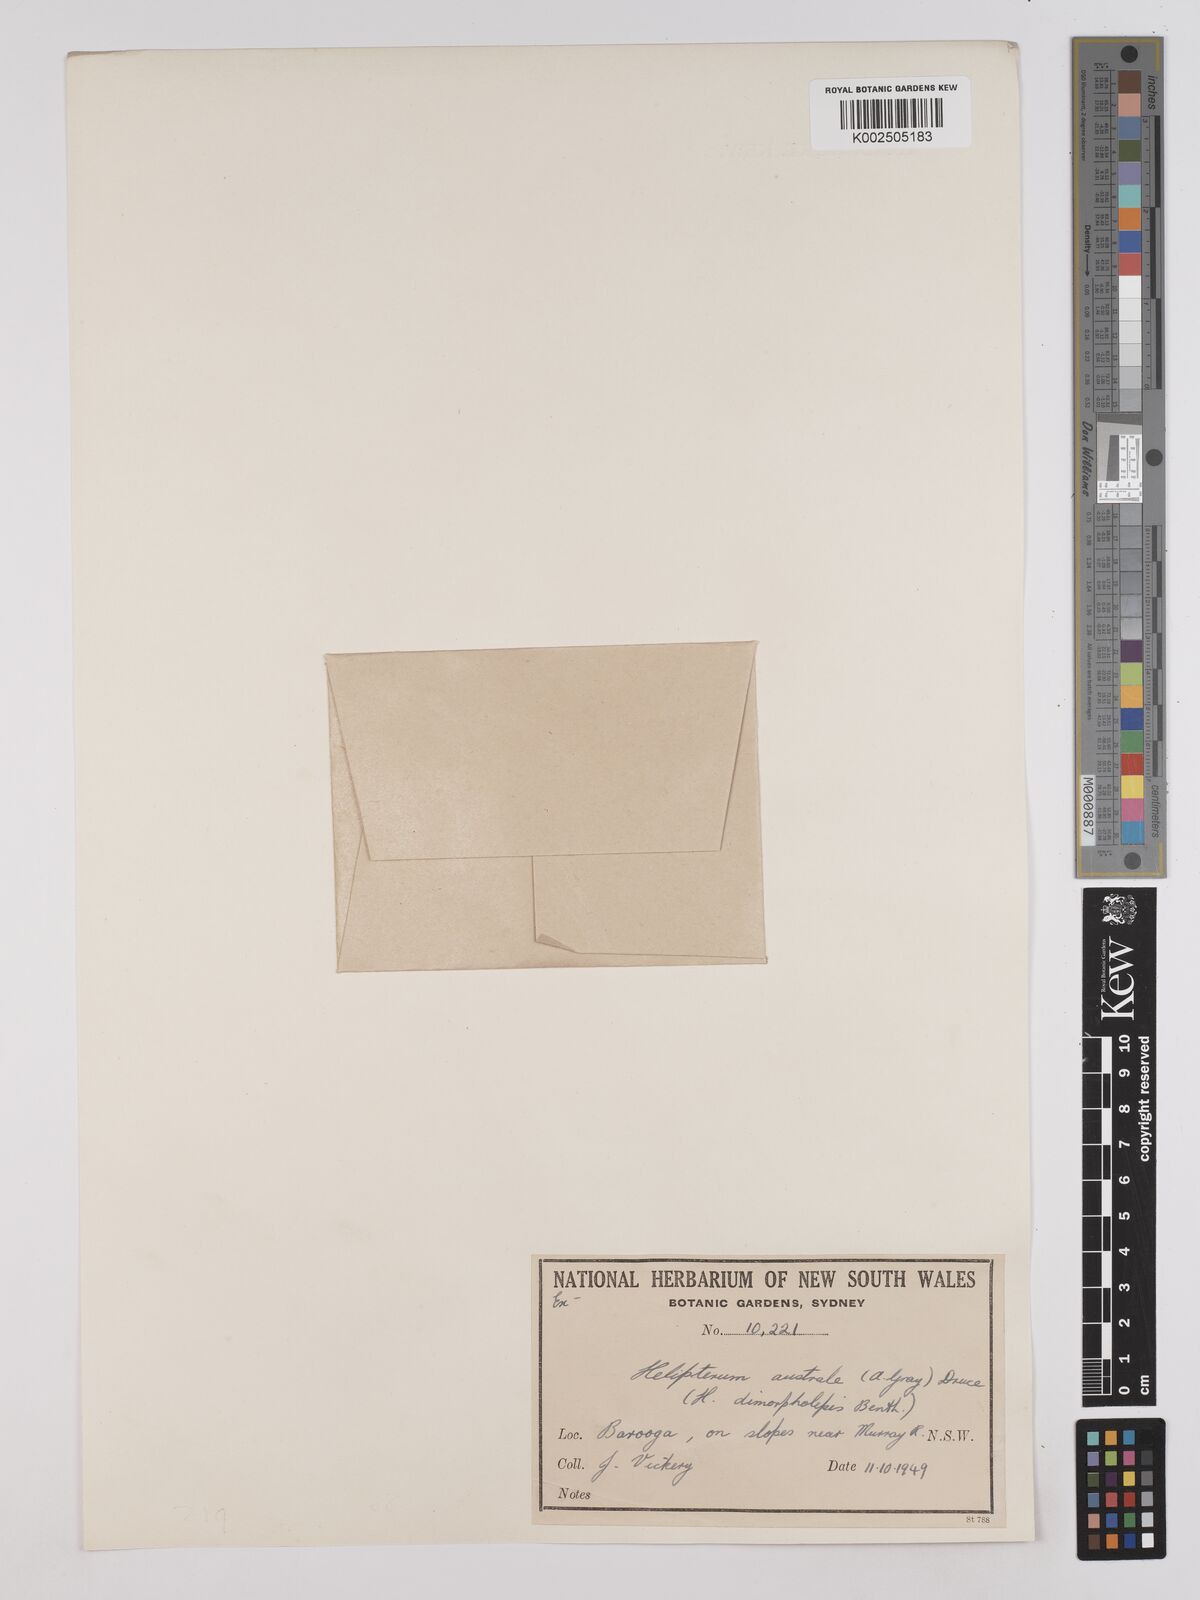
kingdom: Plantae
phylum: Tracheophyta
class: Magnoliopsida
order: Asterales
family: Asteraceae
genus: Triptilodiscus
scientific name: Triptilodiscus pygmaeus
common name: Common sunray
